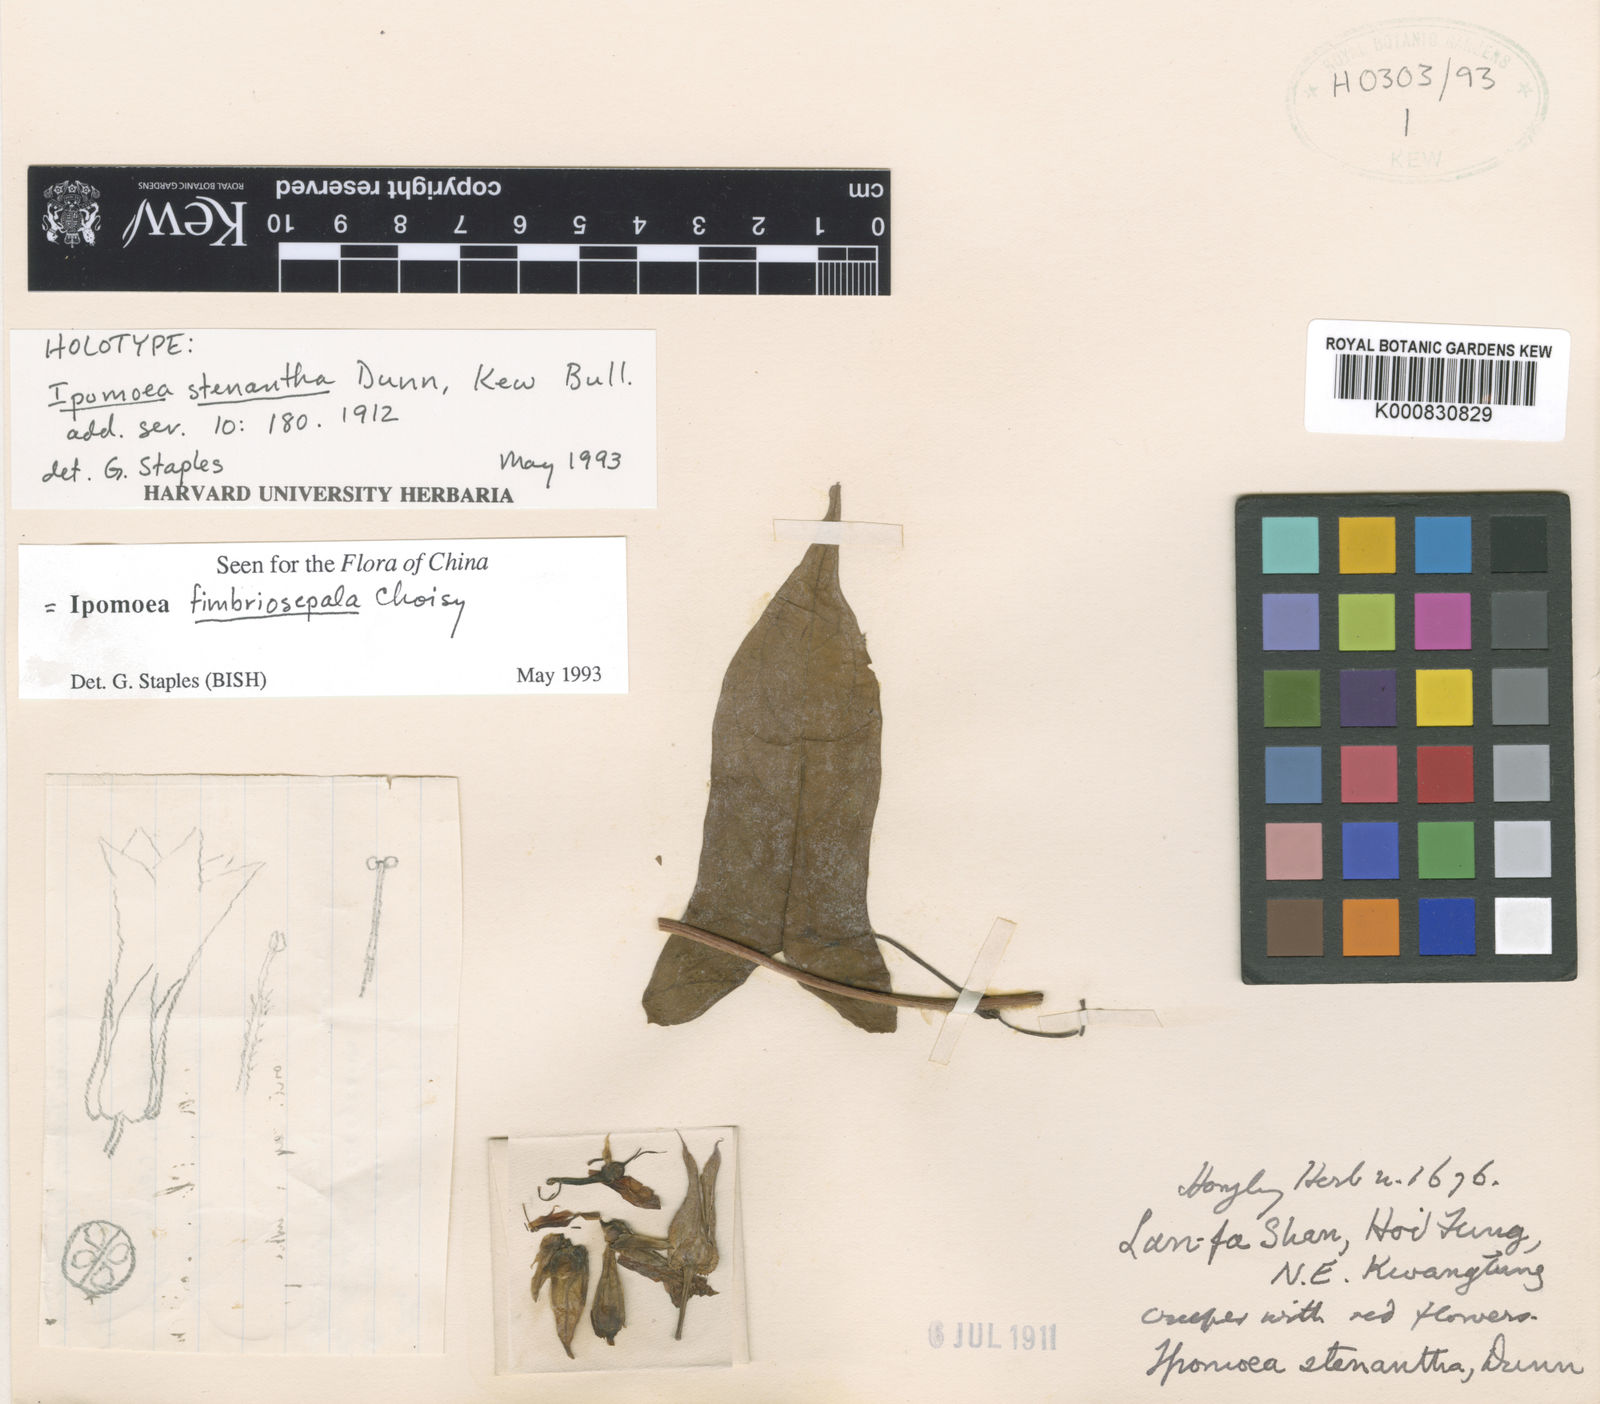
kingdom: Plantae
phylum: Tracheophyta
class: Magnoliopsida
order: Solanales
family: Convolvulaceae
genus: Ipomoea
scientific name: Ipomoea fimbriosepala
